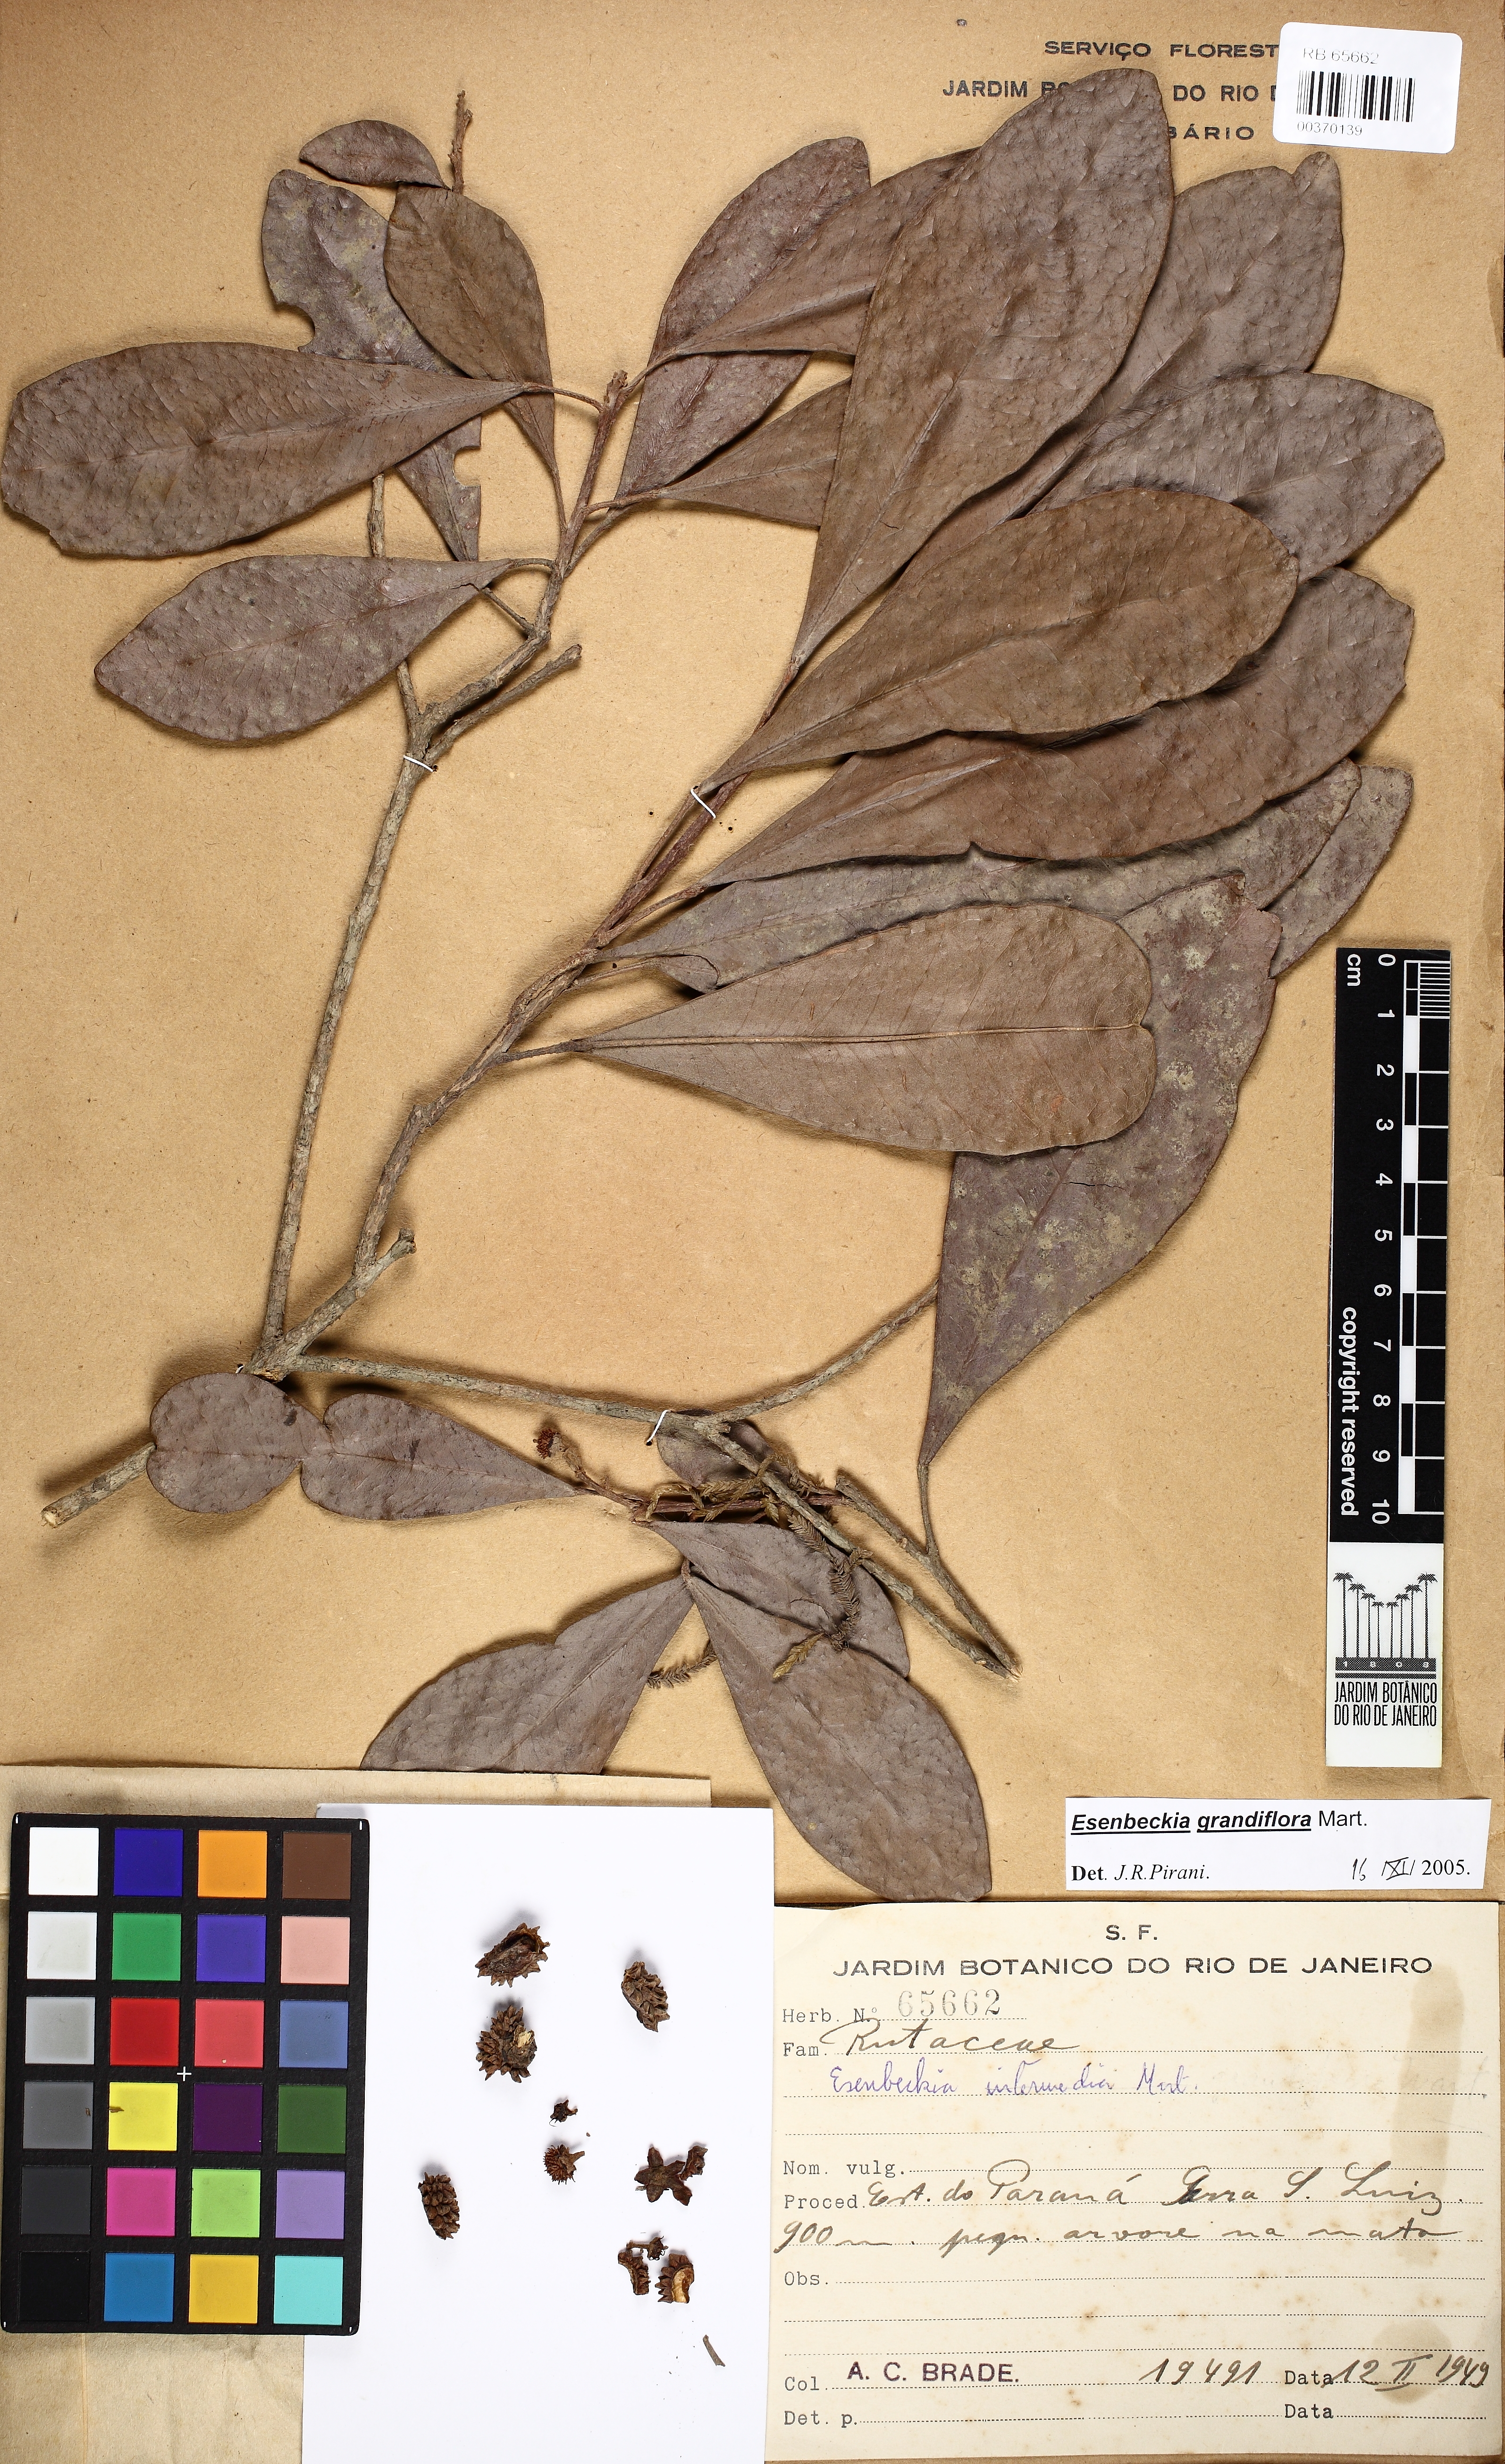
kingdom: Plantae
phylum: Tracheophyta
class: Magnoliopsida
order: Sapindales
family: Rutaceae
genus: Esenbeckia
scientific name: Esenbeckia grandiflora
